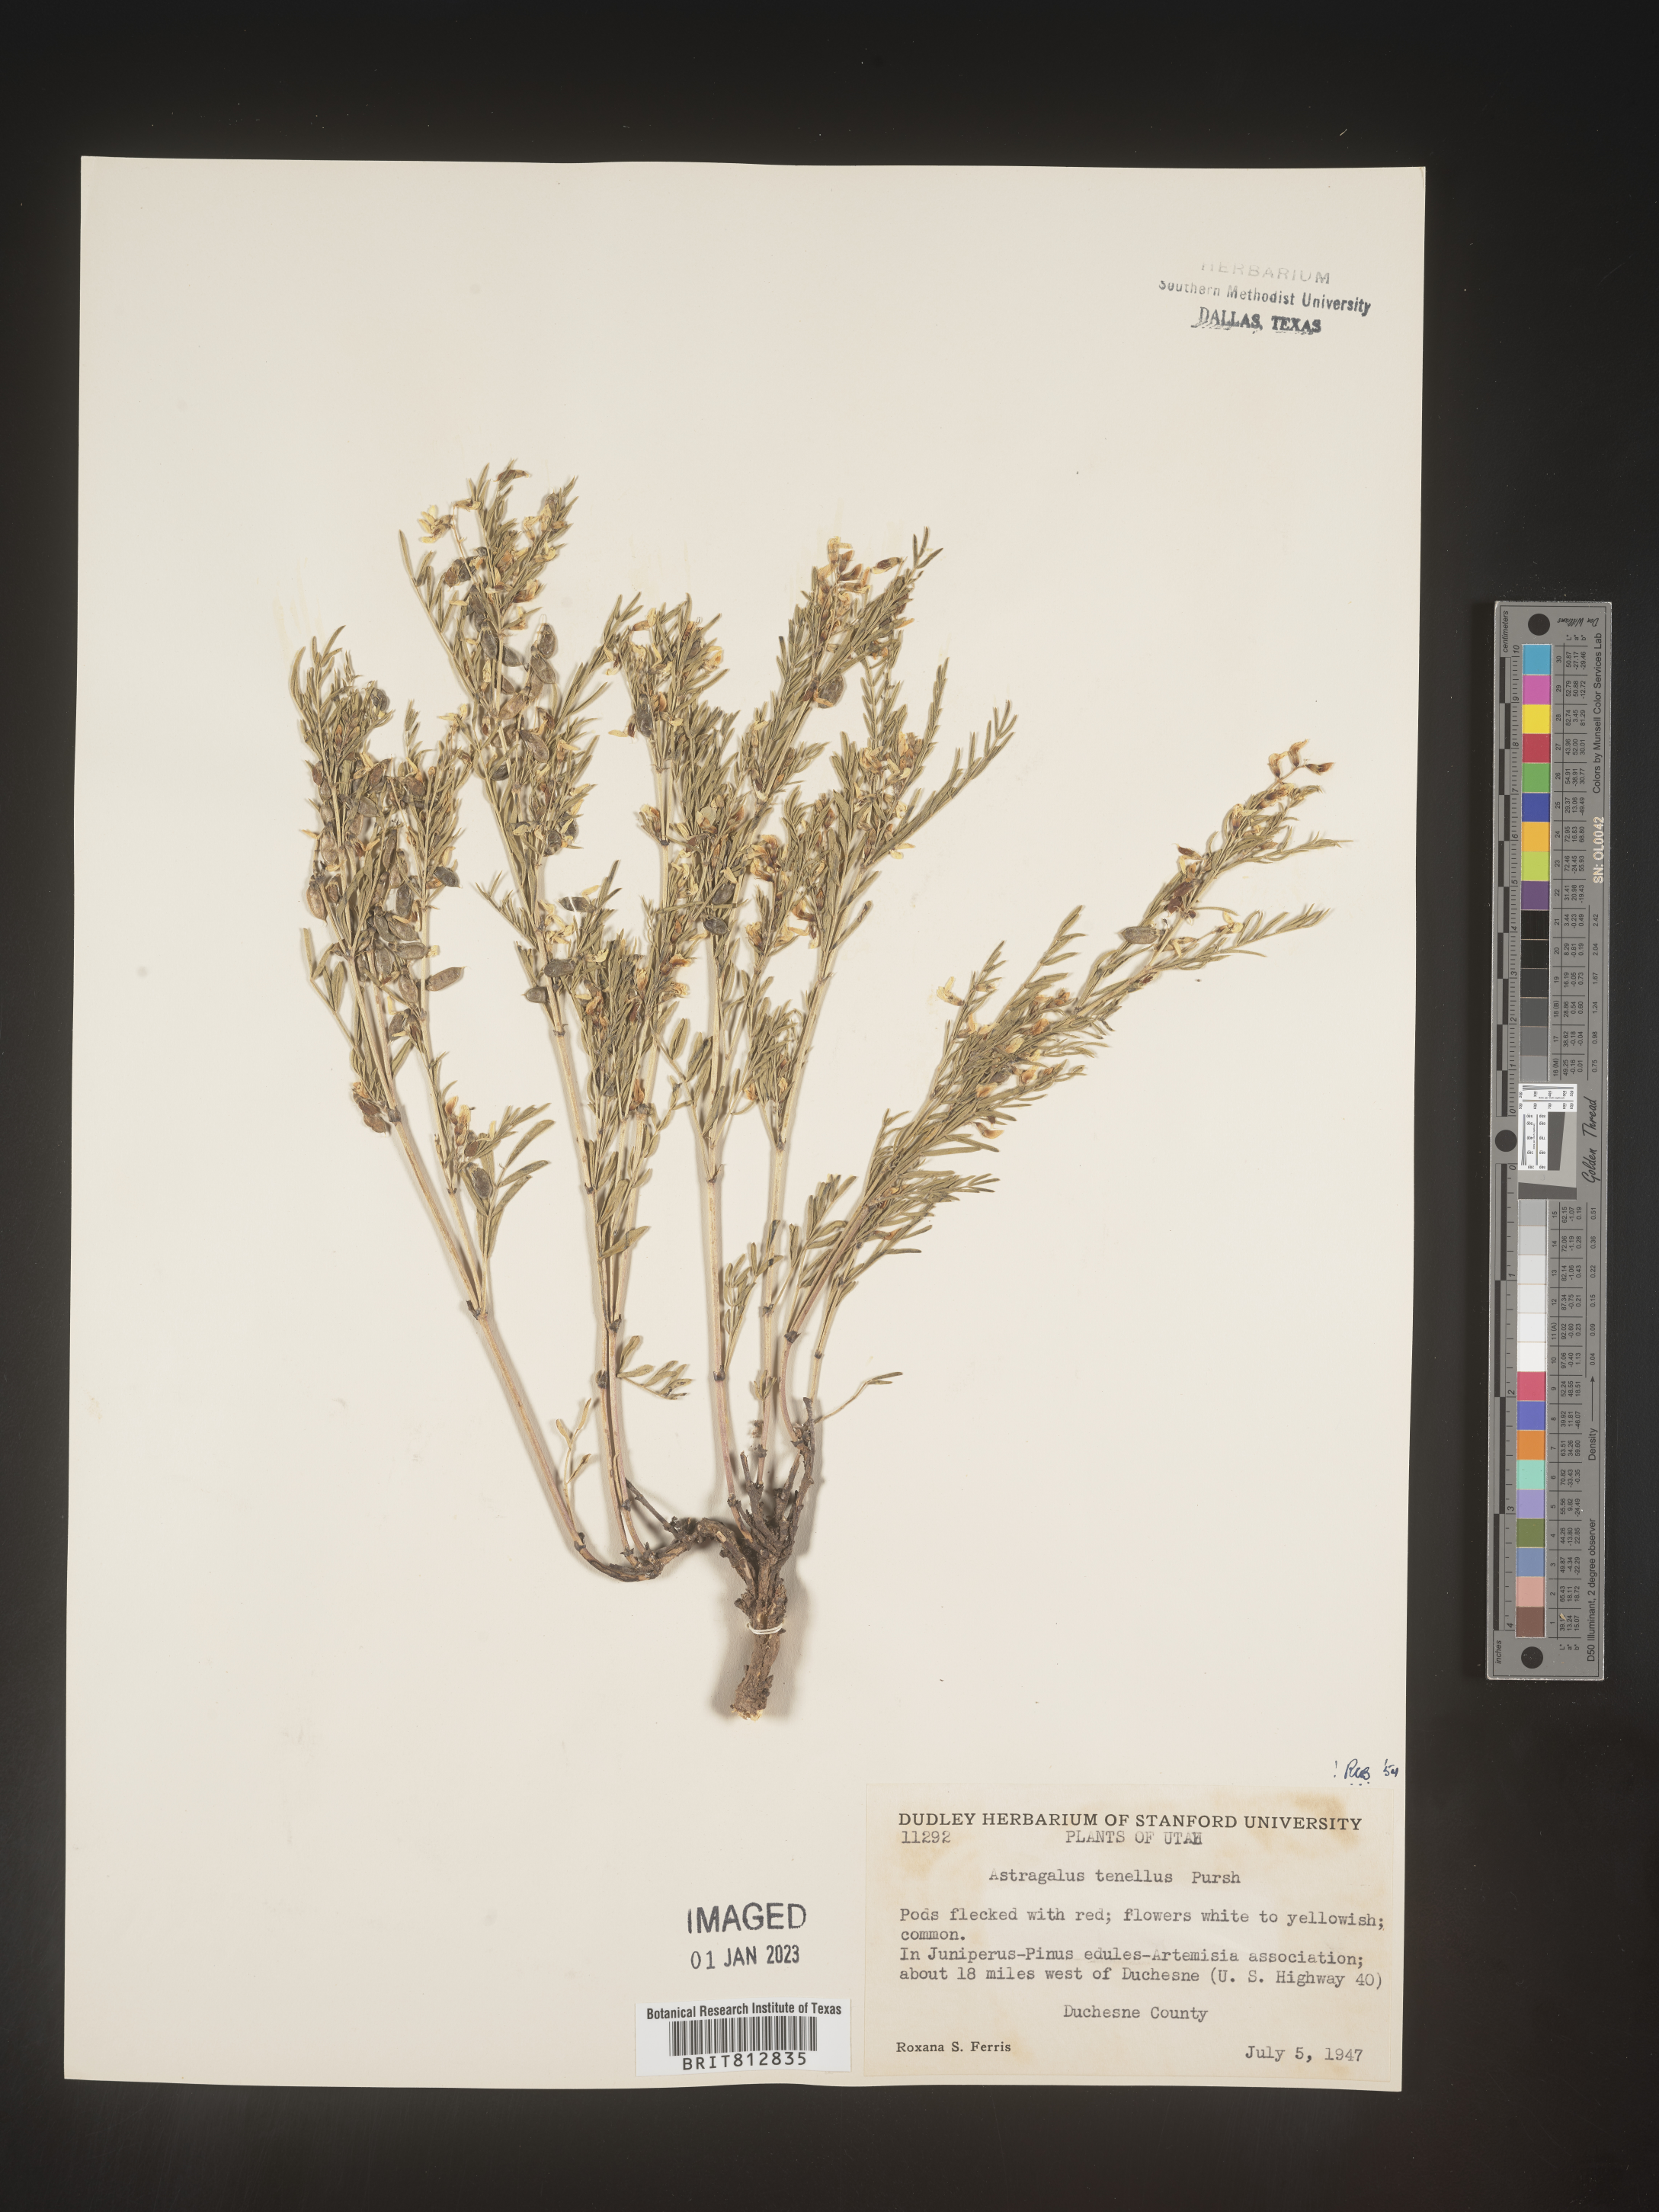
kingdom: Plantae
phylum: Tracheophyta
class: Magnoliopsida
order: Fabales
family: Fabaceae
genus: Astragalus
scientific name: Astragalus tenellus
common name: Pulse milk-vetch
